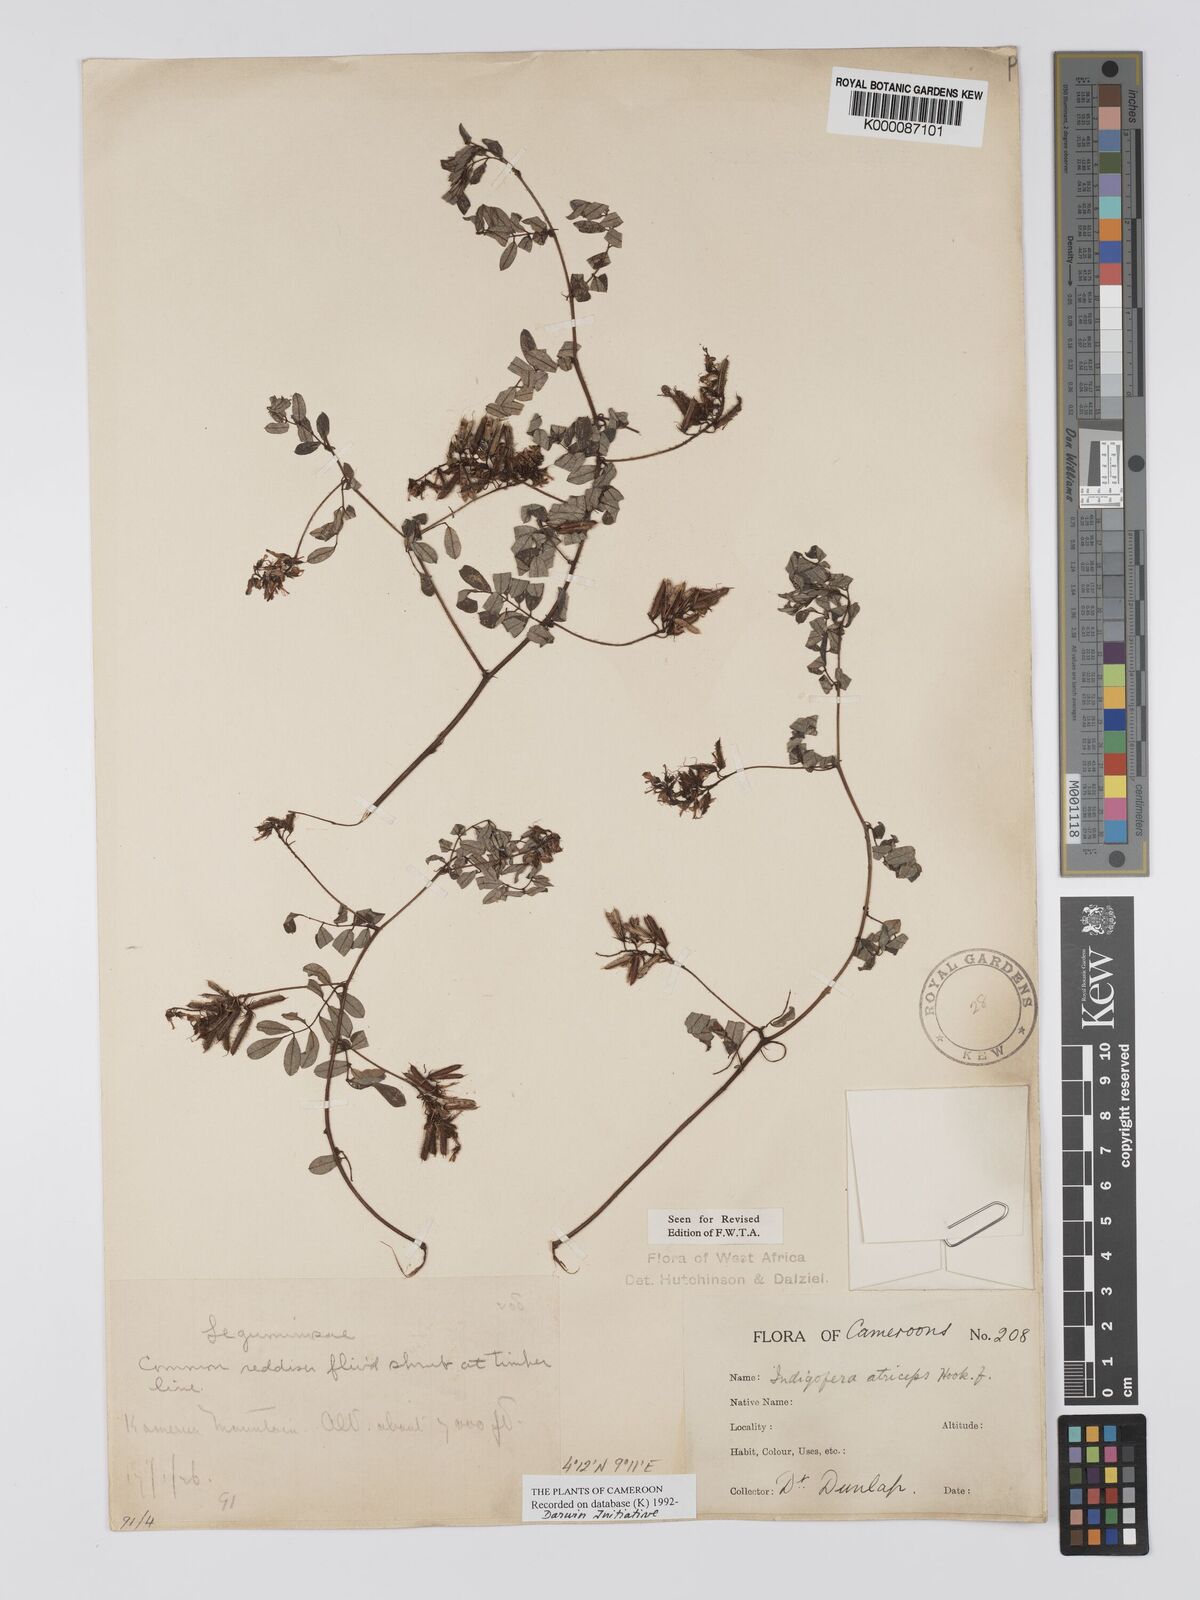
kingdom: Plantae
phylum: Tracheophyta
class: Magnoliopsida
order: Fabales
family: Fabaceae
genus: Indigofera
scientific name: Indigofera atriceps
